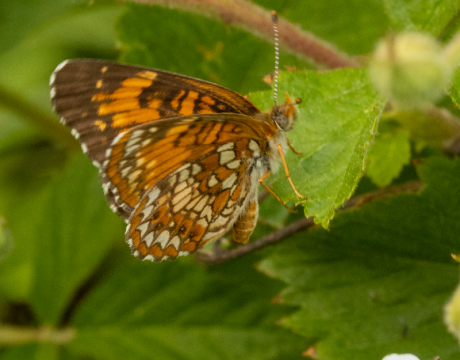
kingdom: Animalia
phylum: Arthropoda
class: Insecta
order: Lepidoptera
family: Nymphalidae
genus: Chlosyne
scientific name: Chlosyne harrisii
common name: Harris's Checkerspot
